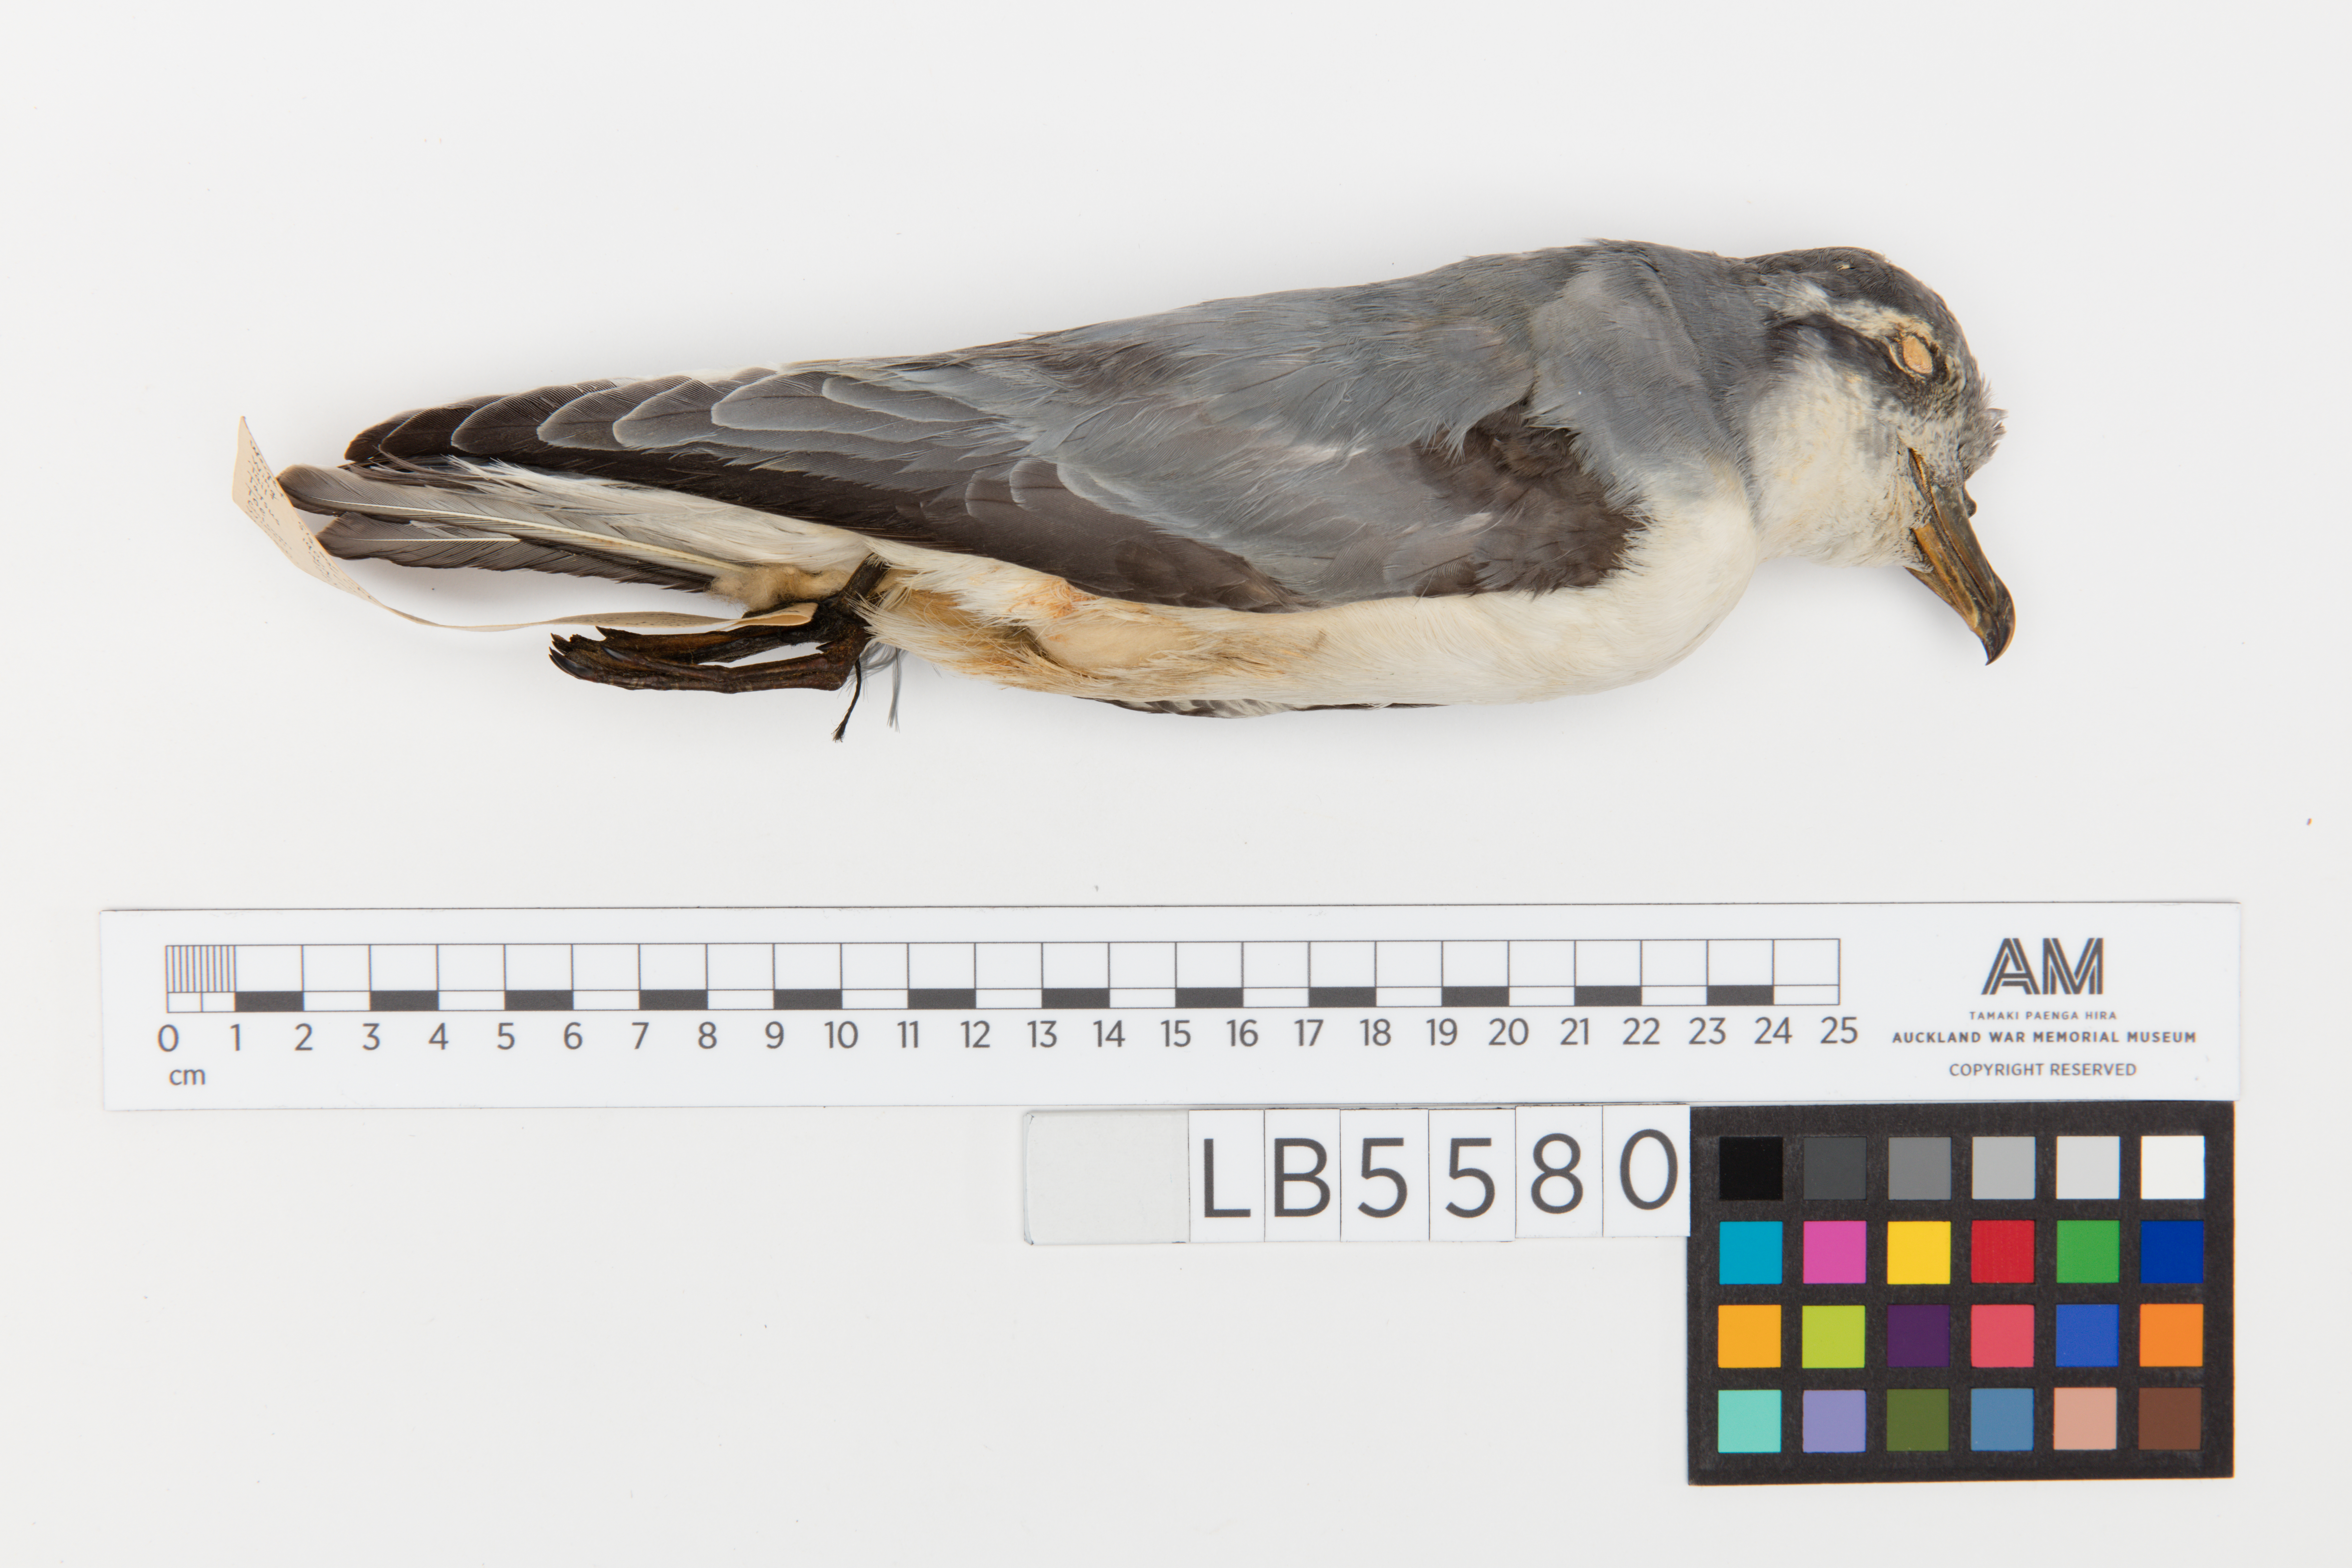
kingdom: Animalia
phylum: Chordata
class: Aves
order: Procellariiformes
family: Procellariidae
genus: Pachyptila
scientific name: Pachyptila desolata
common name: Antarctic prion
